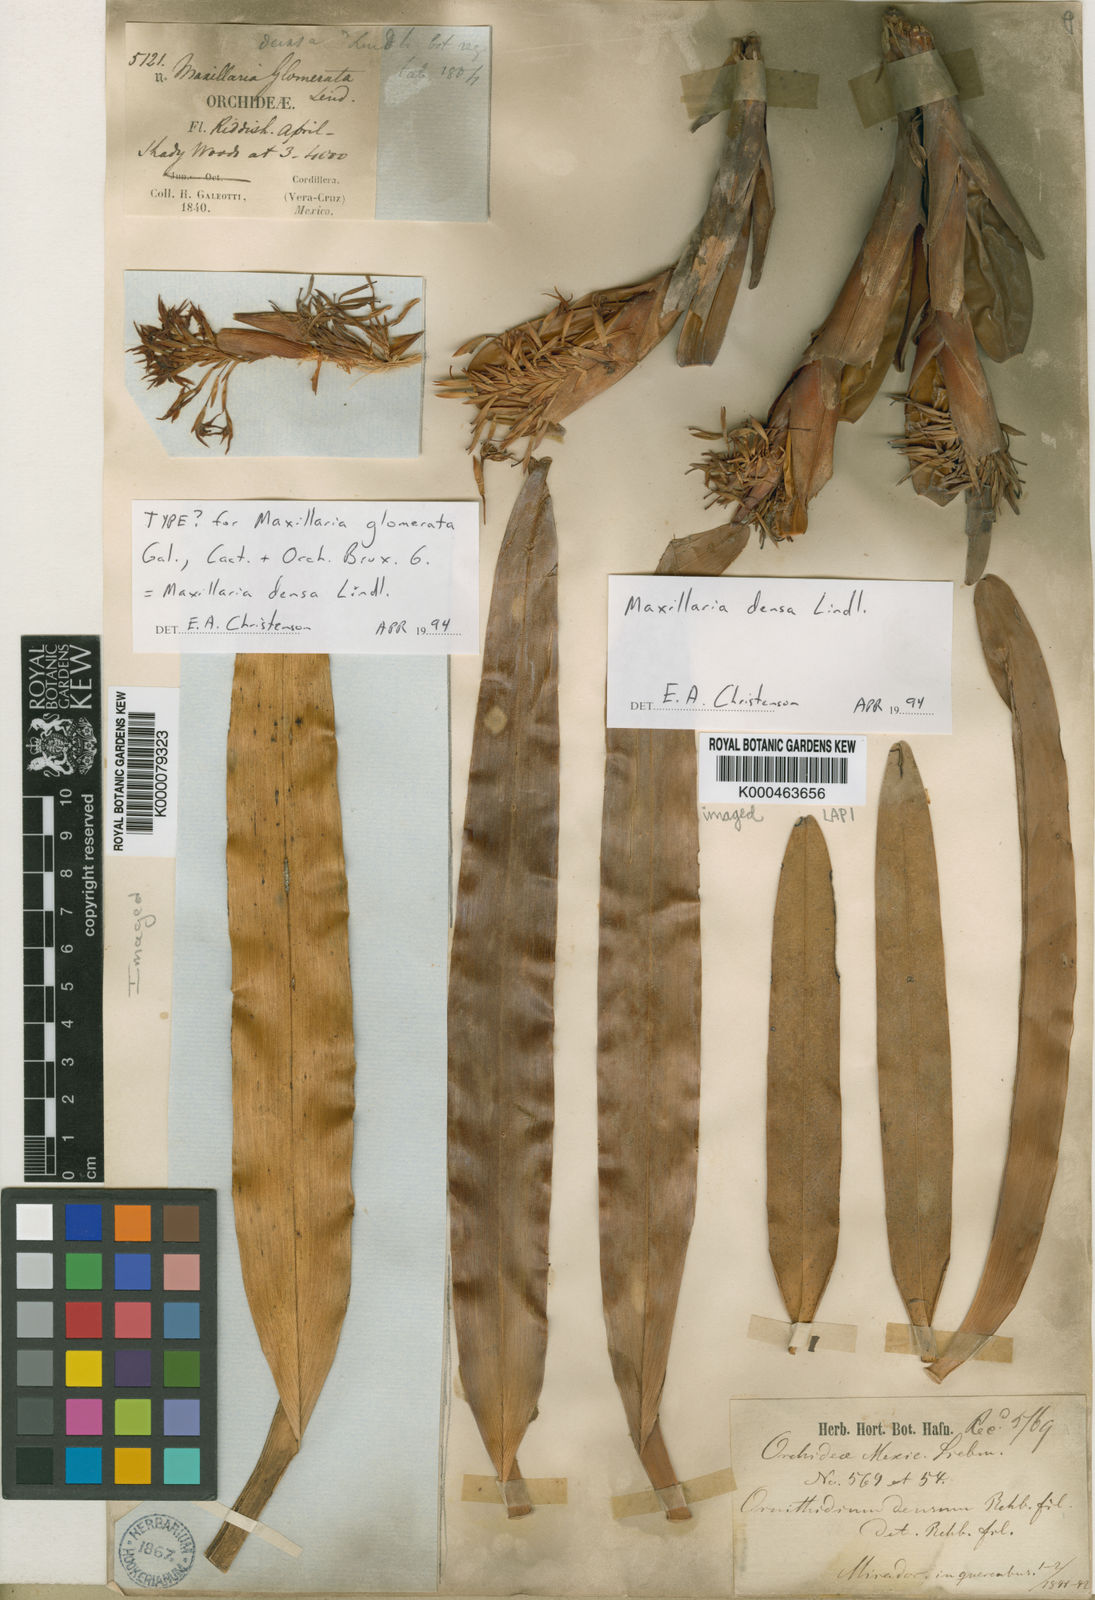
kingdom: Plantae
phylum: Tracheophyta
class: Liliopsida
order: Asparagales
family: Orchidaceae
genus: Maxillaria
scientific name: Maxillaria densa
